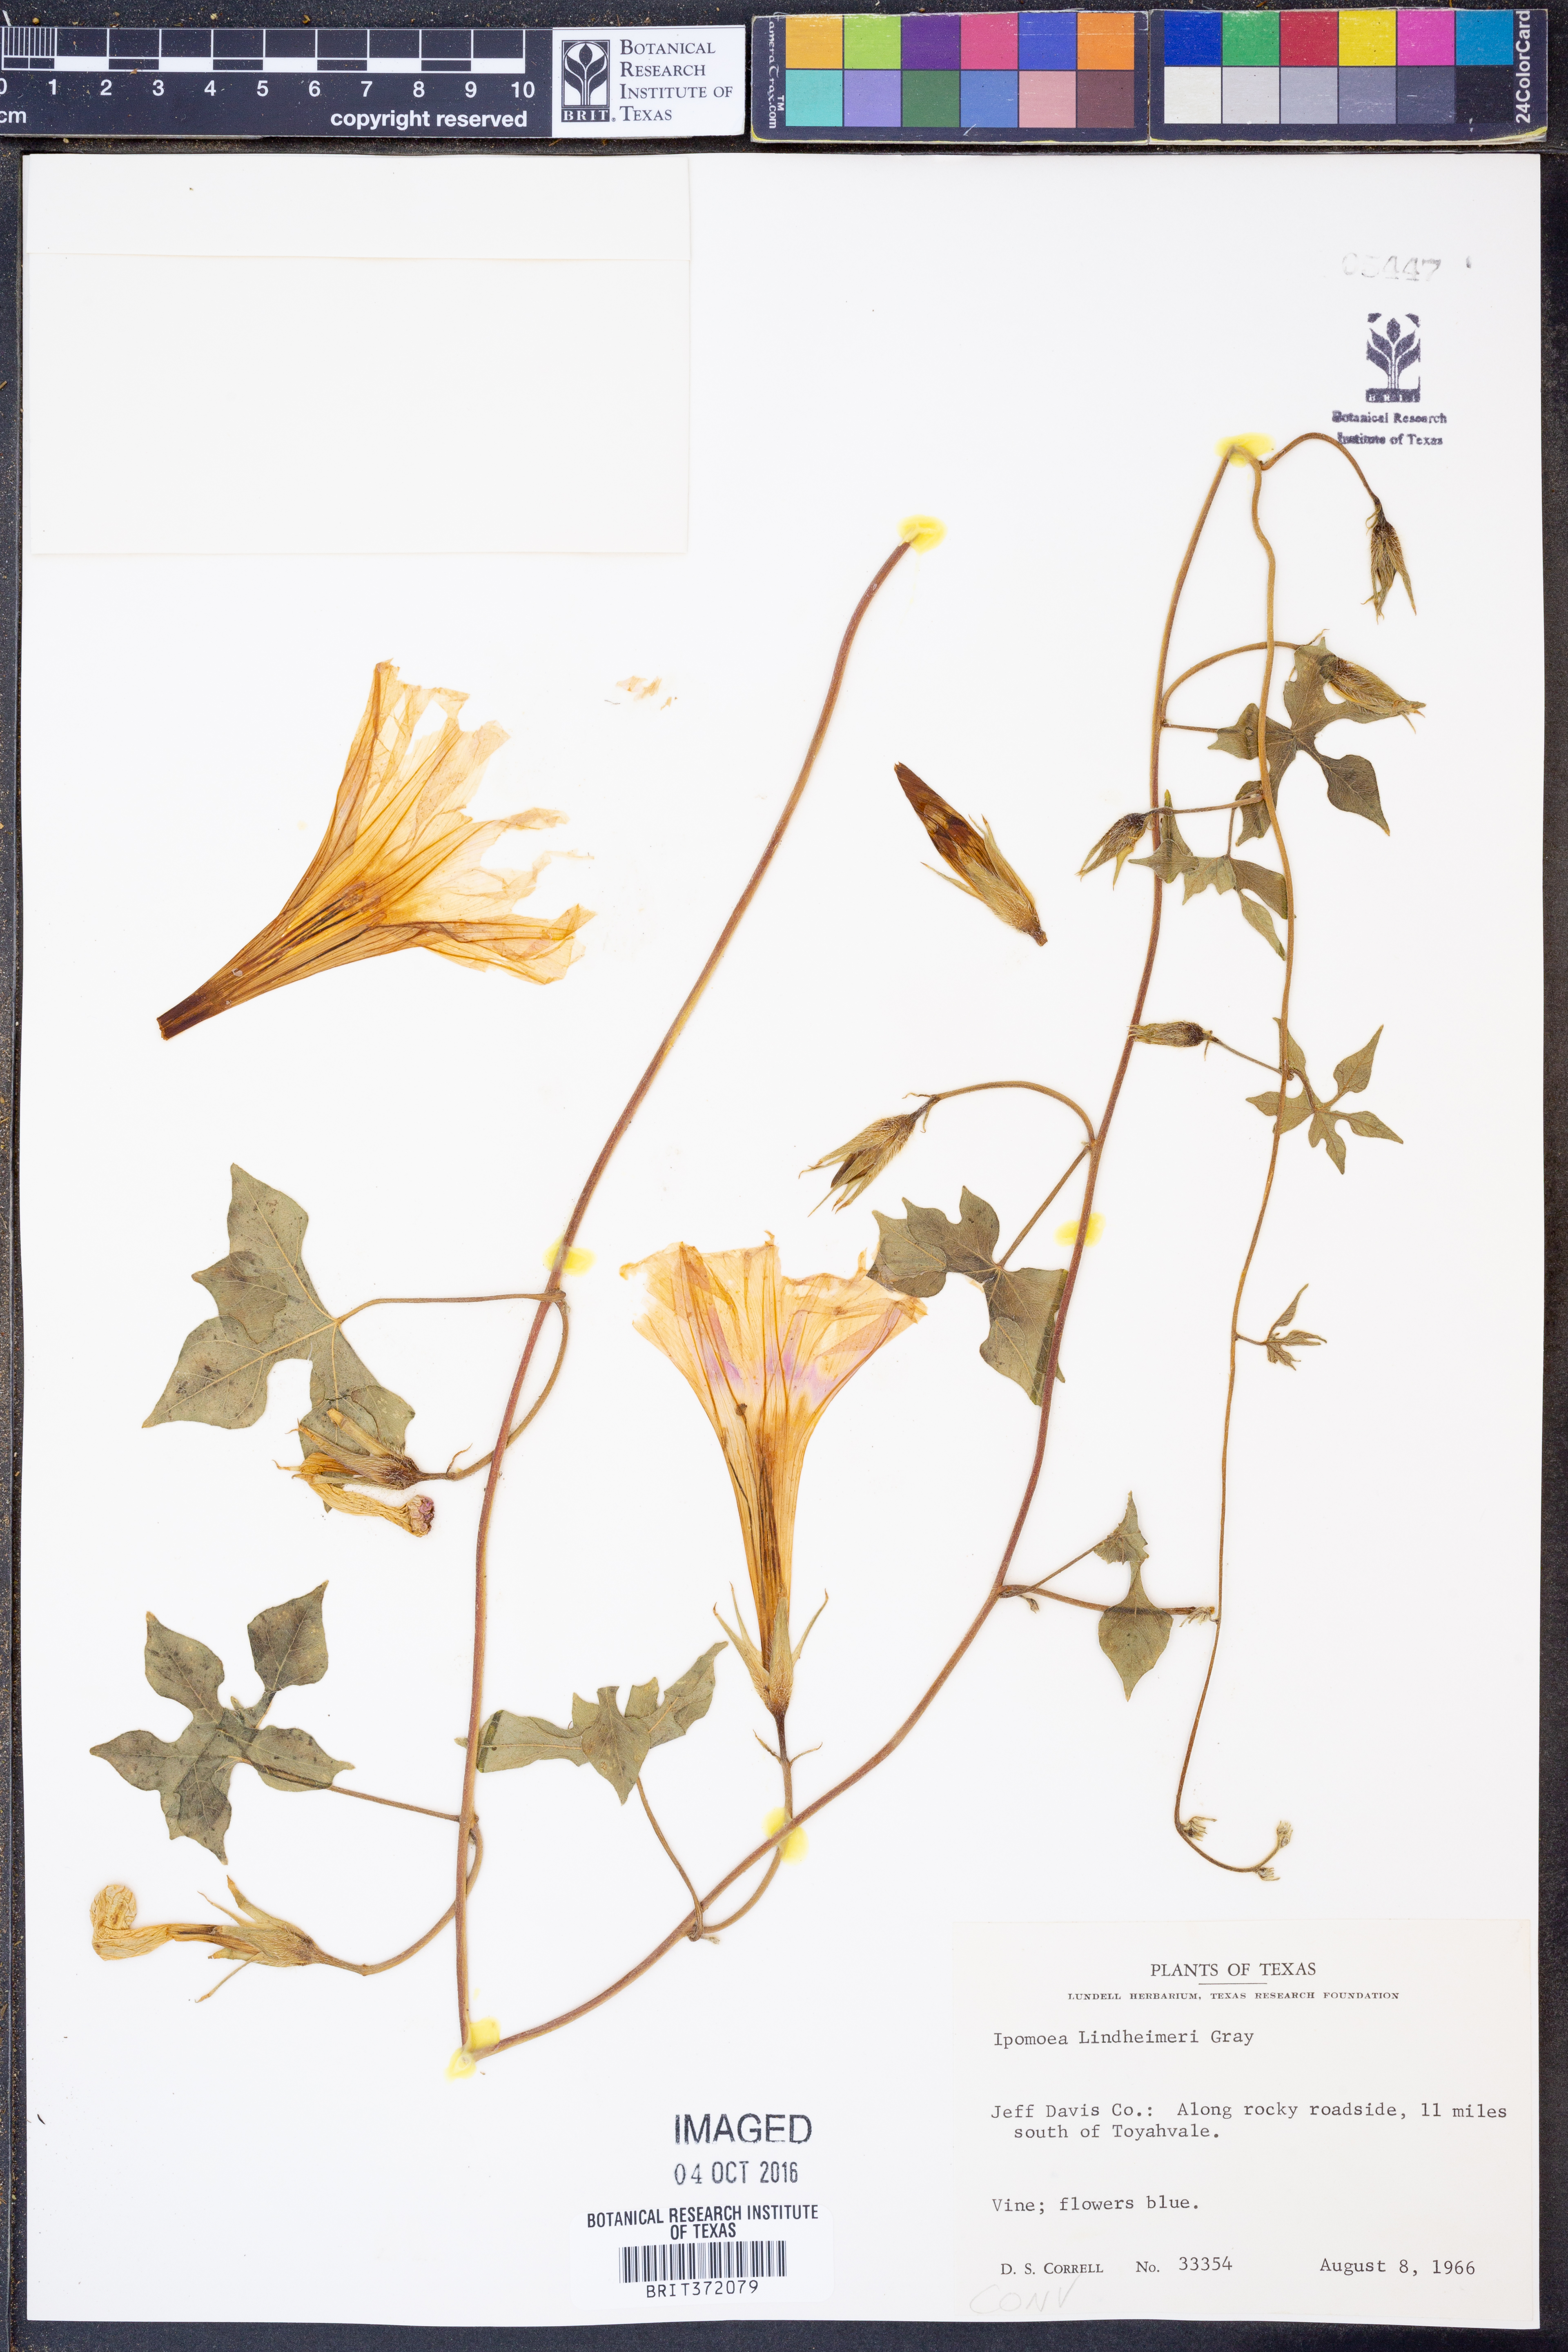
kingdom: Plantae
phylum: Tracheophyta
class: Magnoliopsida
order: Solanales
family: Convolvulaceae
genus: Ipomoea
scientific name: Ipomoea lindheimeri
